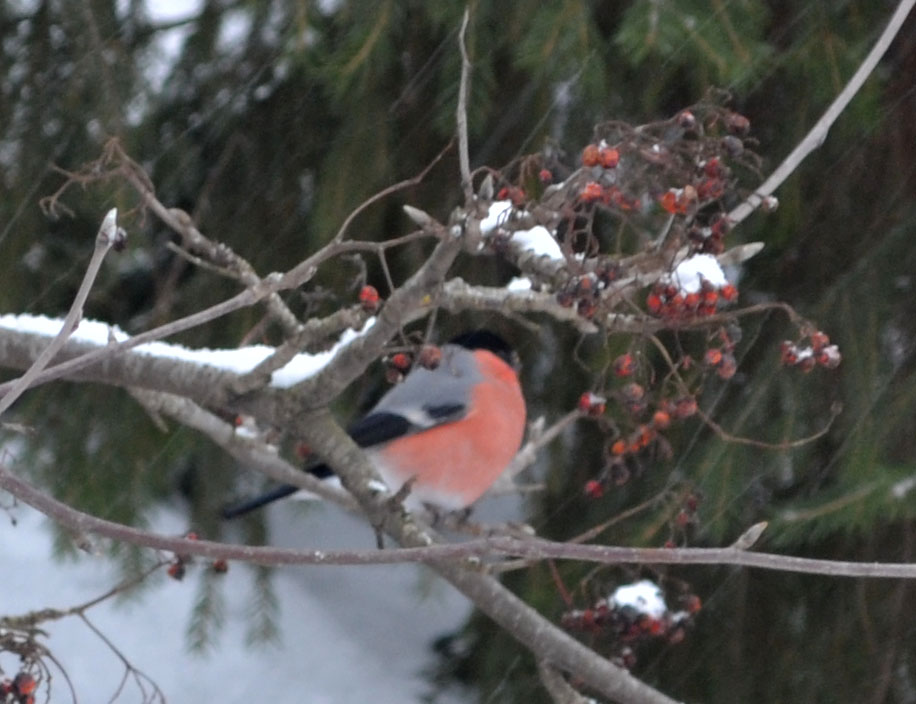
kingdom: Animalia
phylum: Chordata
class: Aves
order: Passeriformes
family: Fringillidae
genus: Pyrrhula
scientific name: Pyrrhula pyrrhula
